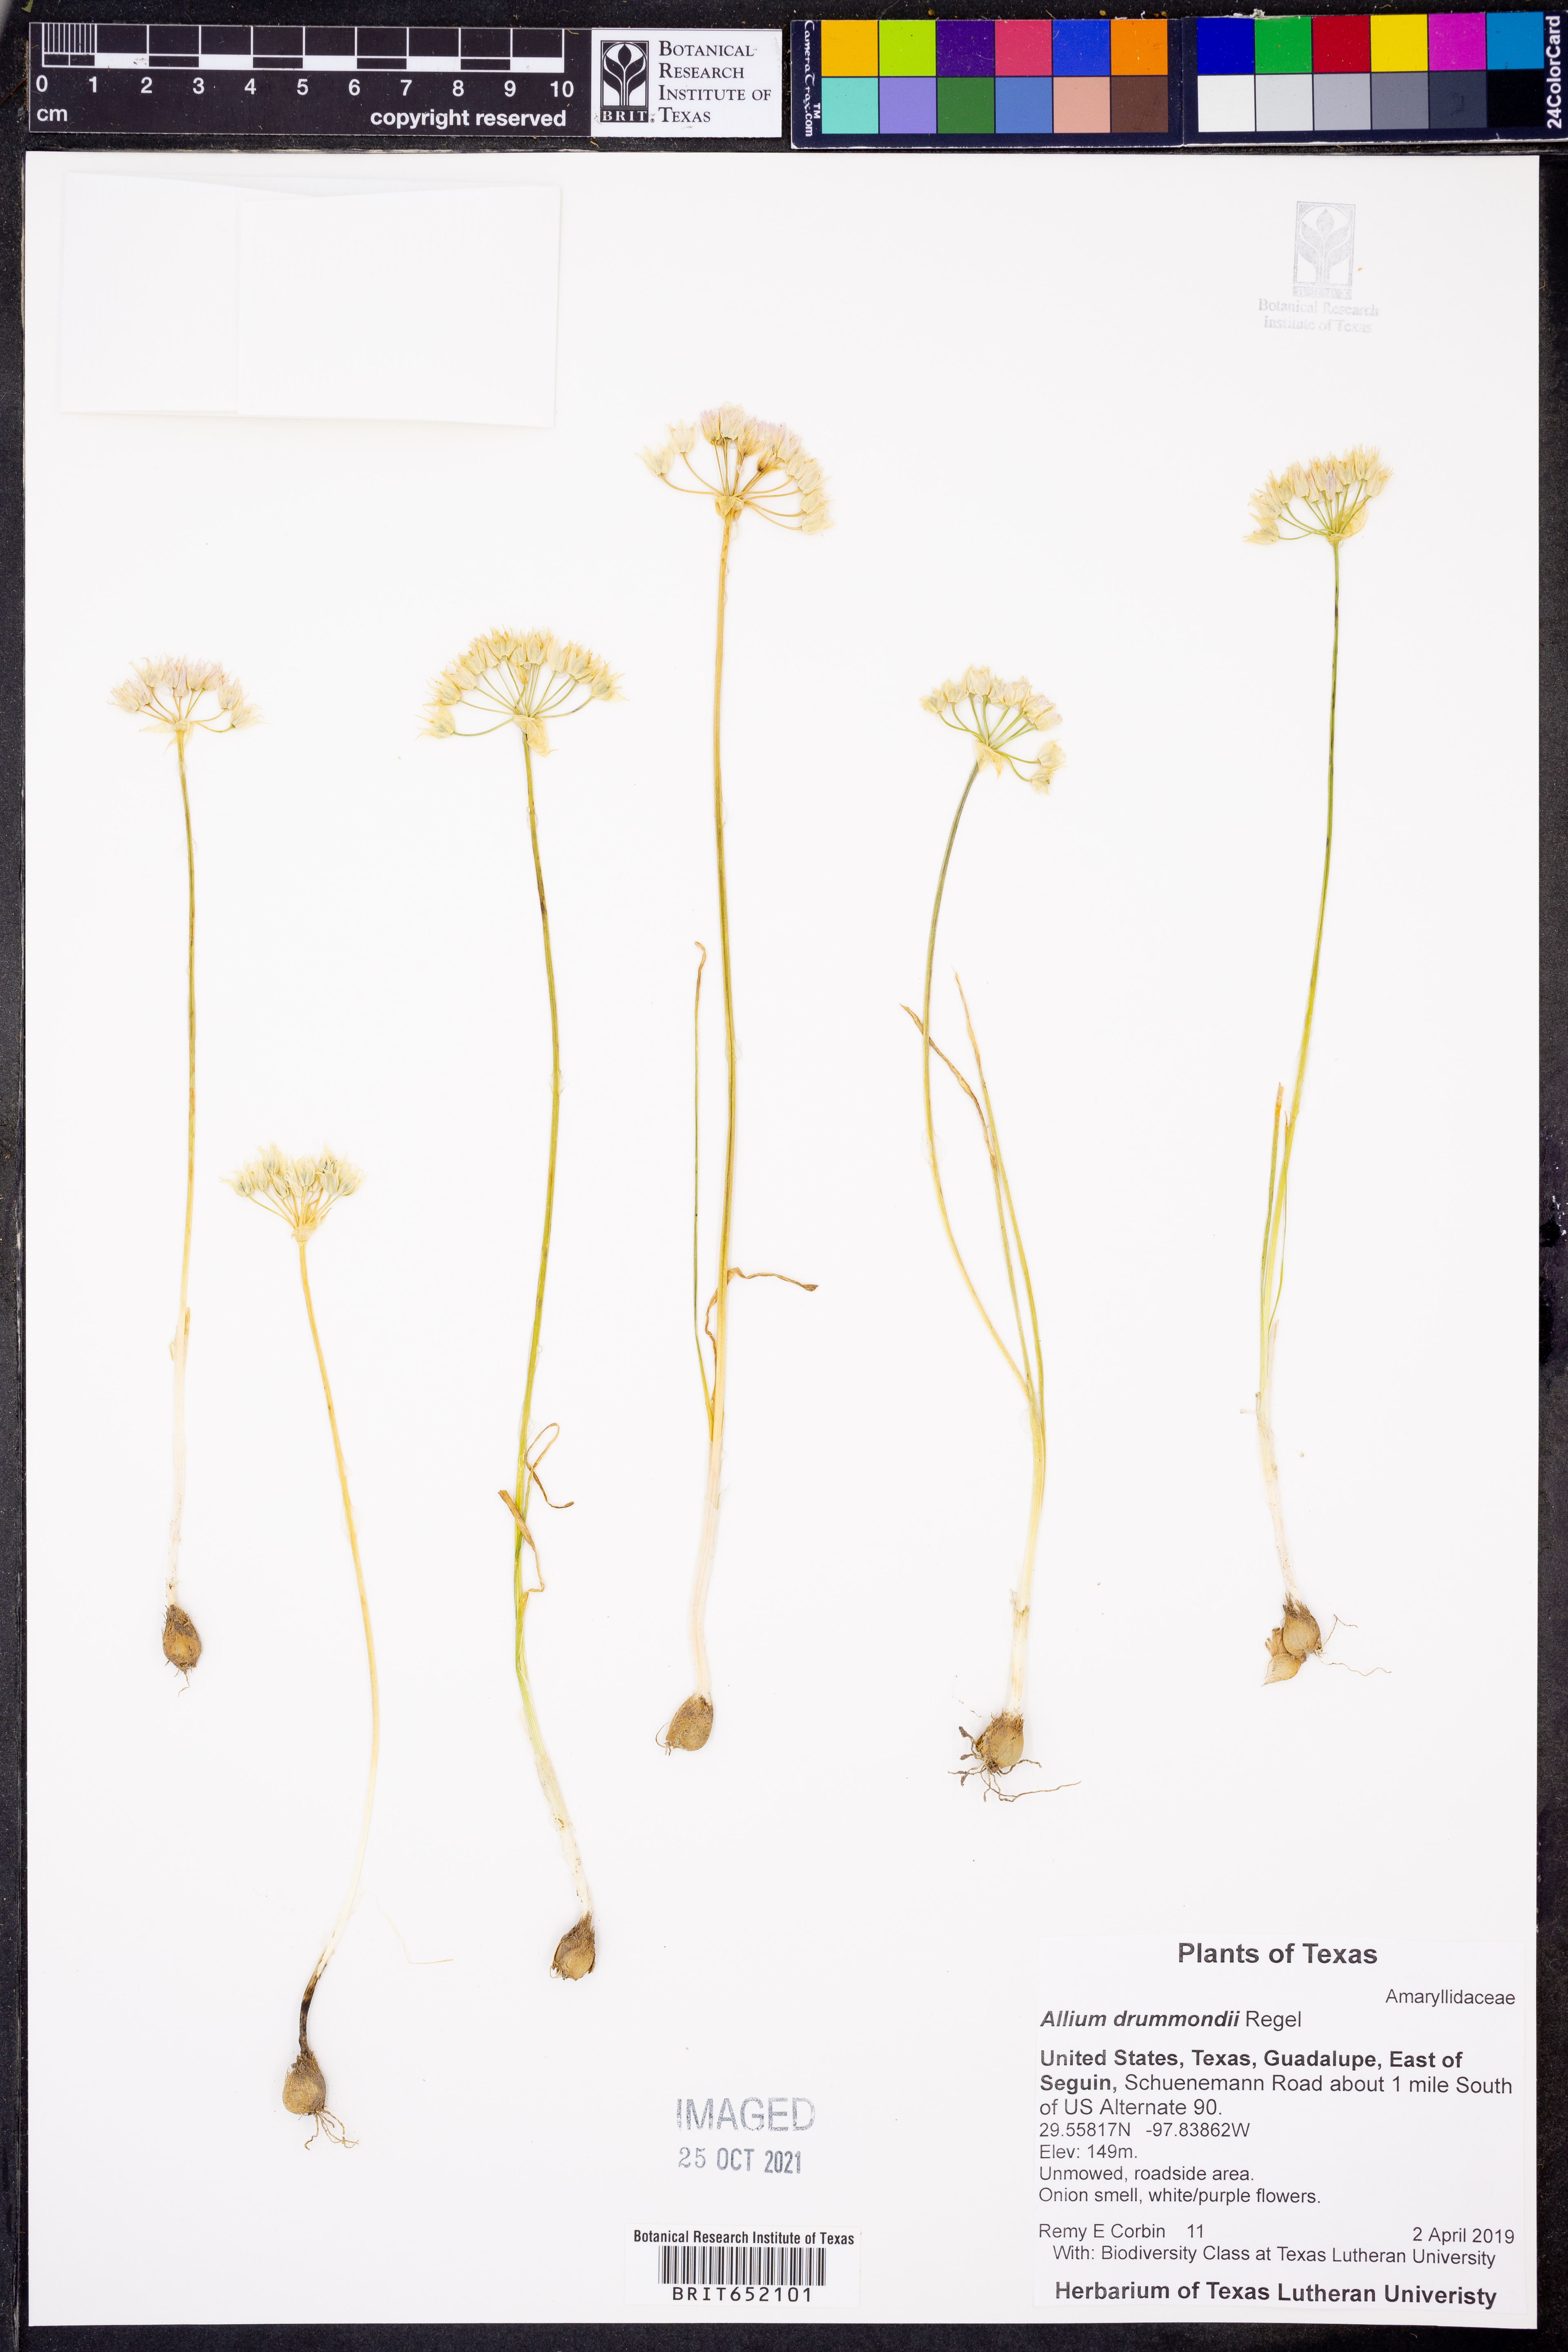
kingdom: Plantae
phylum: Tracheophyta
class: Liliopsida
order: Asparagales
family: Amaryllidaceae
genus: Allium
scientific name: Allium drummondii
